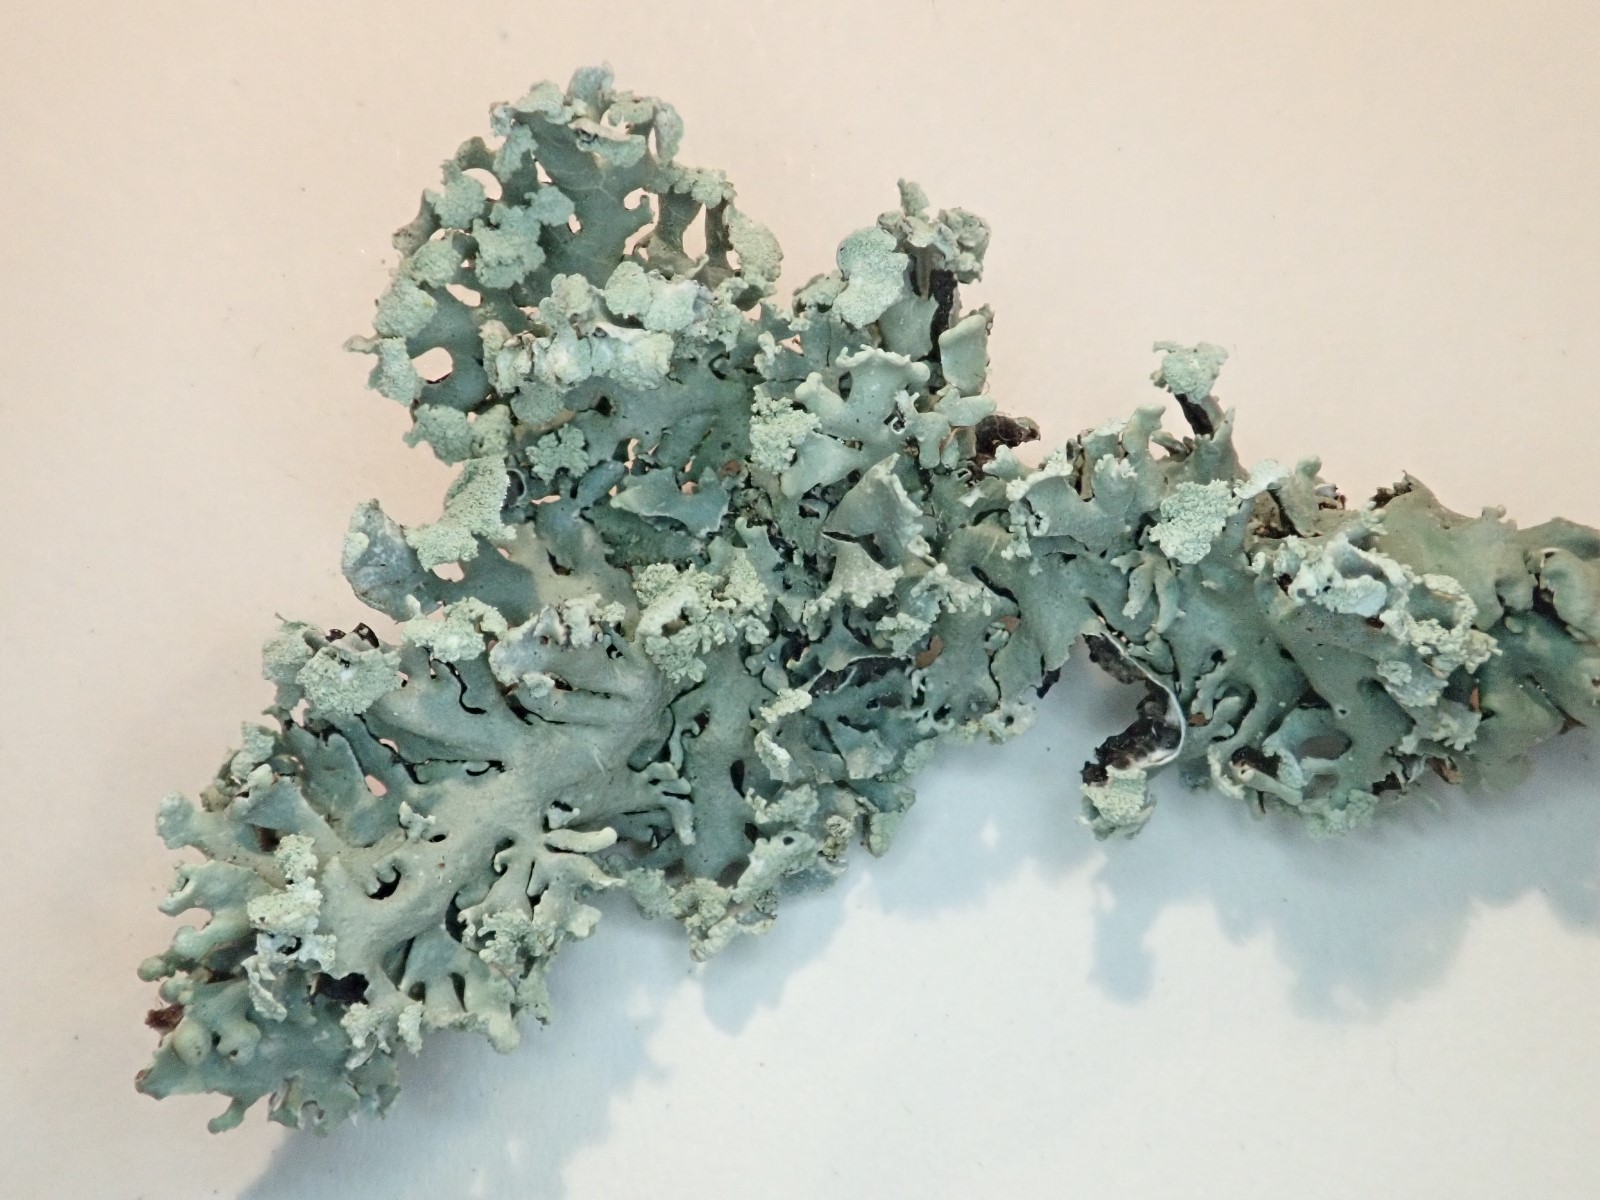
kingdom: Fungi
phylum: Ascomycota
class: Lecanoromycetes
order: Lecanorales
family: Parmeliaceae
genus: Hypogymnia
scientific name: Hypogymnia physodes
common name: almindelig kvistlav
